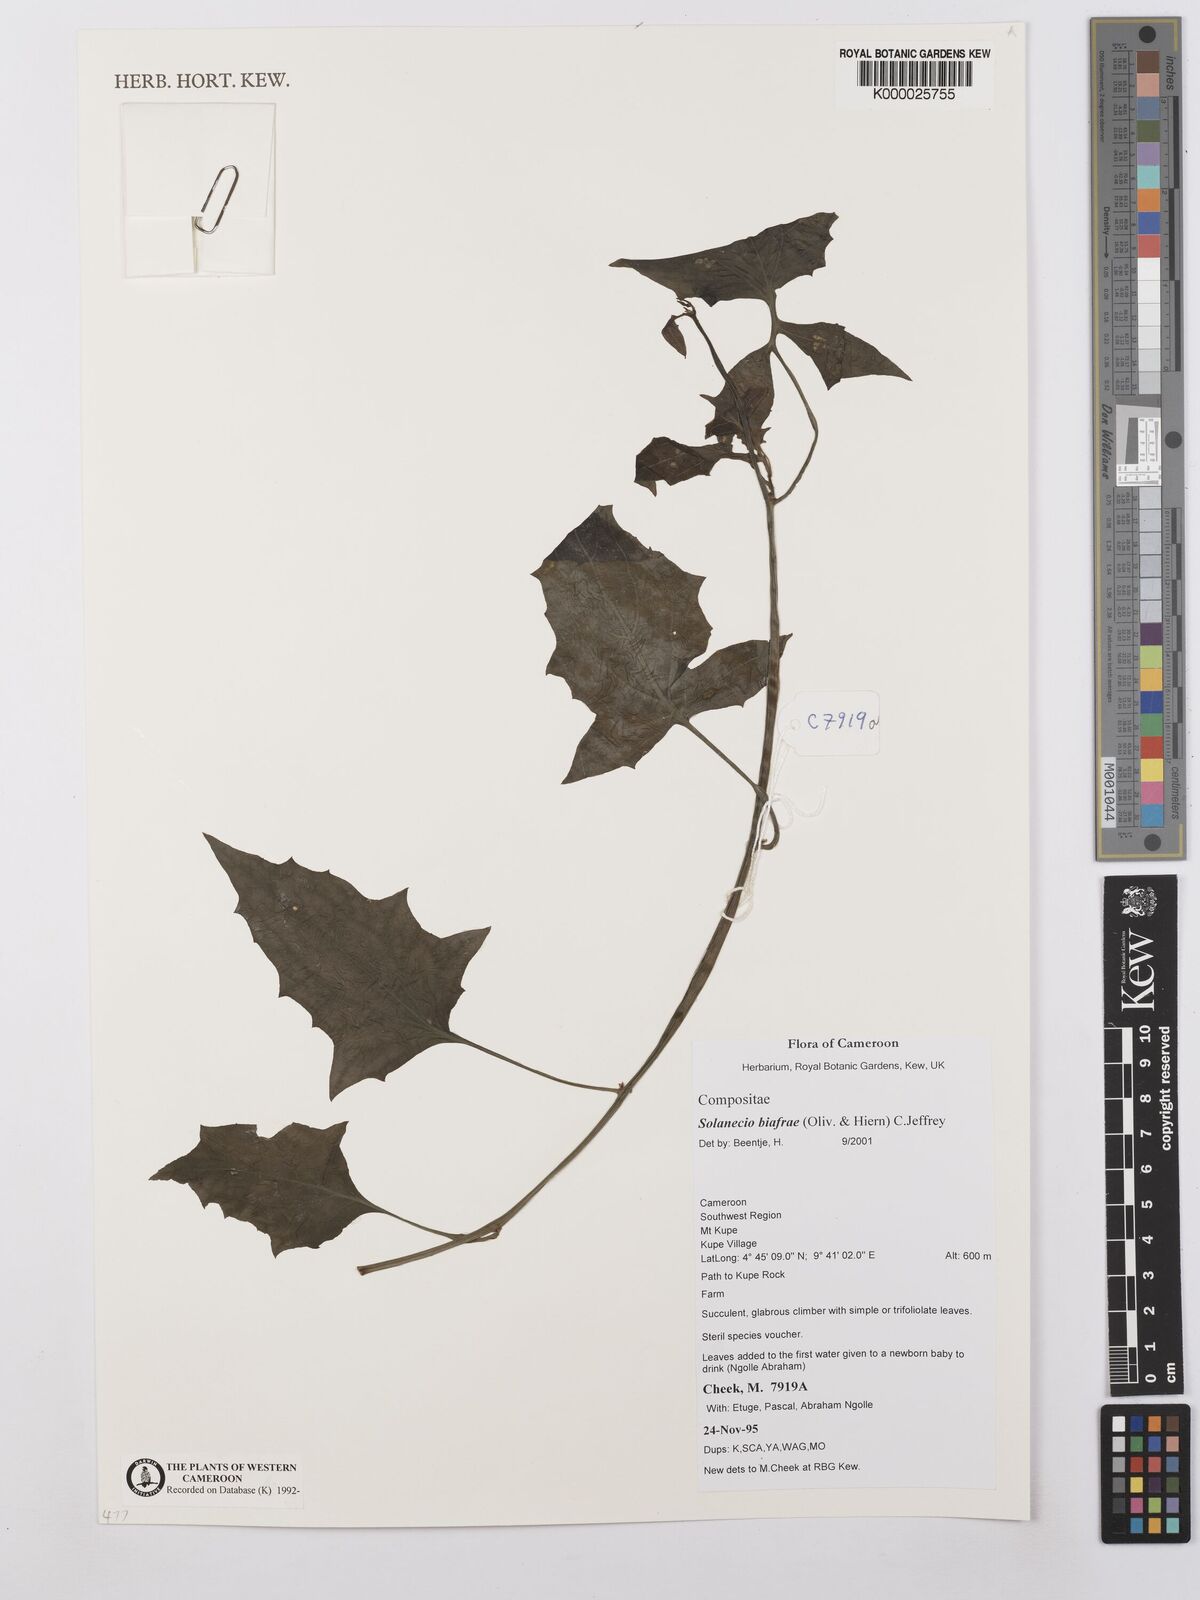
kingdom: Plantae
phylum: Tracheophyta
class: Magnoliopsida
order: Asterales
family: Asteraceae
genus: Solanecio
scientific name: Solanecio biafrae
